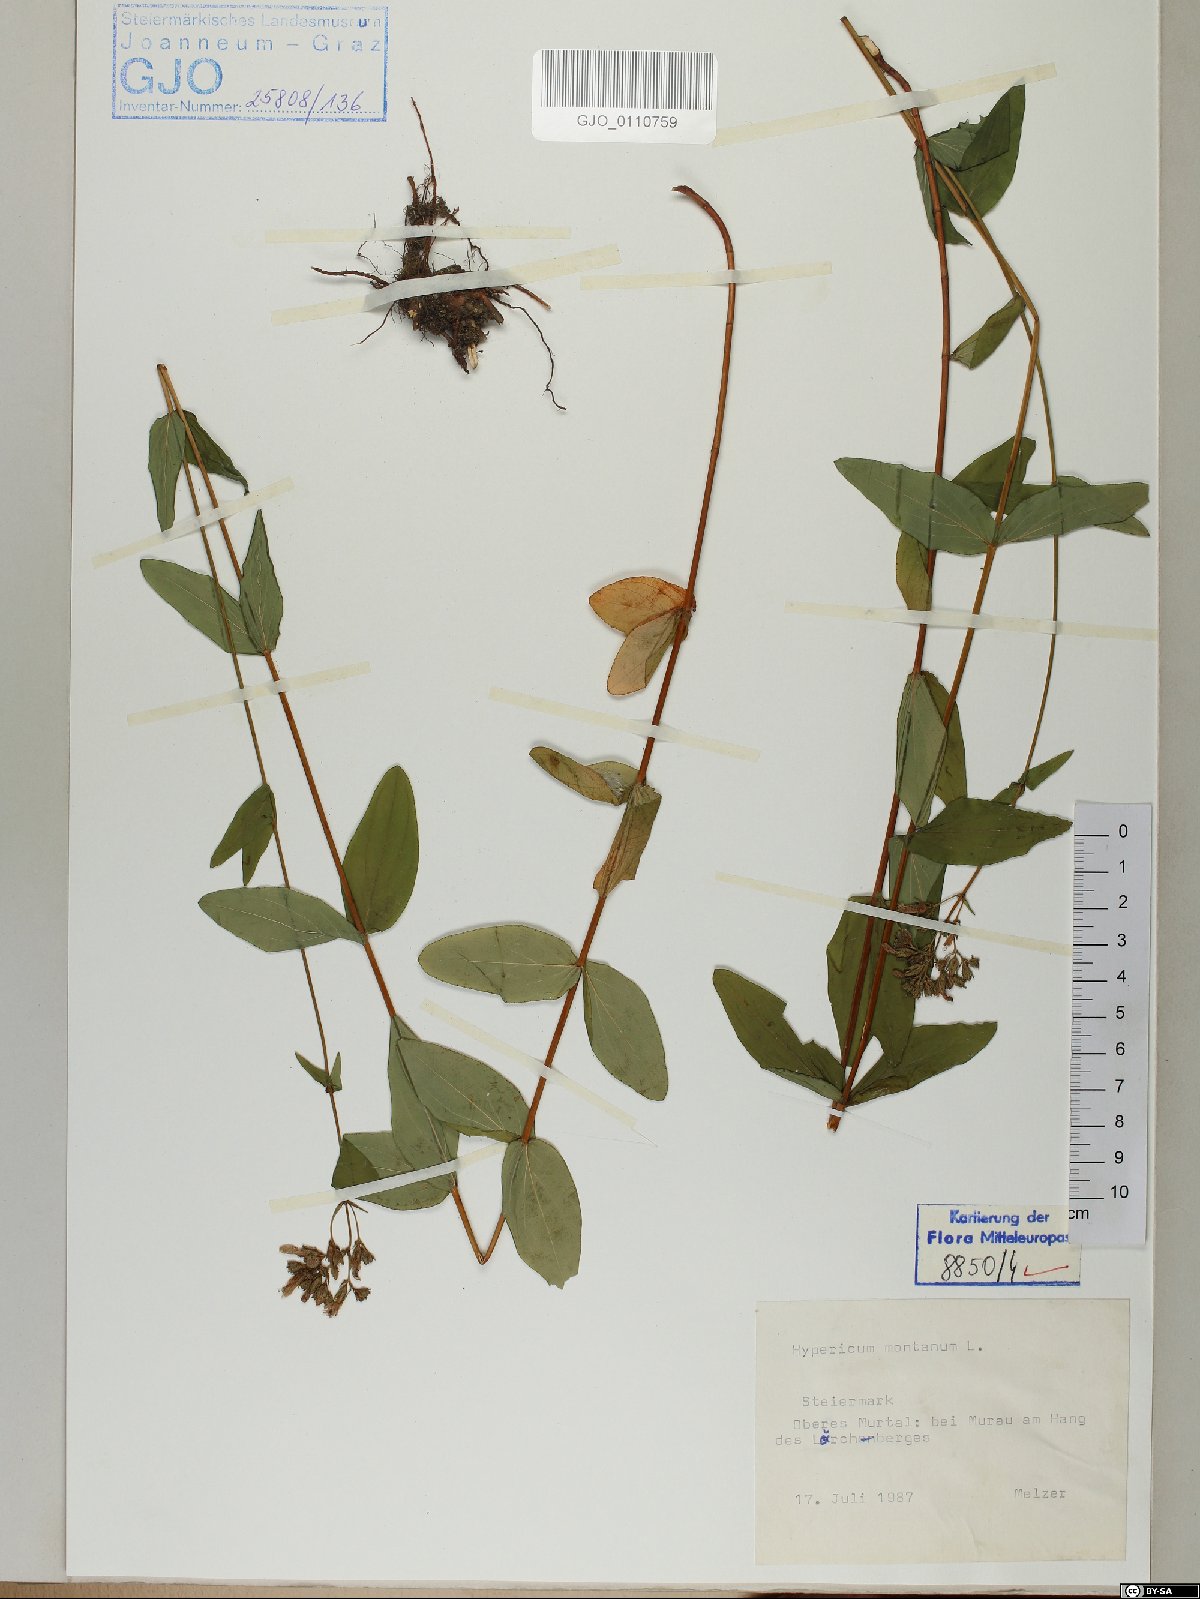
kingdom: Plantae
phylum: Tracheophyta
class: Magnoliopsida
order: Malpighiales
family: Hypericaceae
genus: Hypericum
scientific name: Hypericum montanum
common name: Pale st. john's-wort
